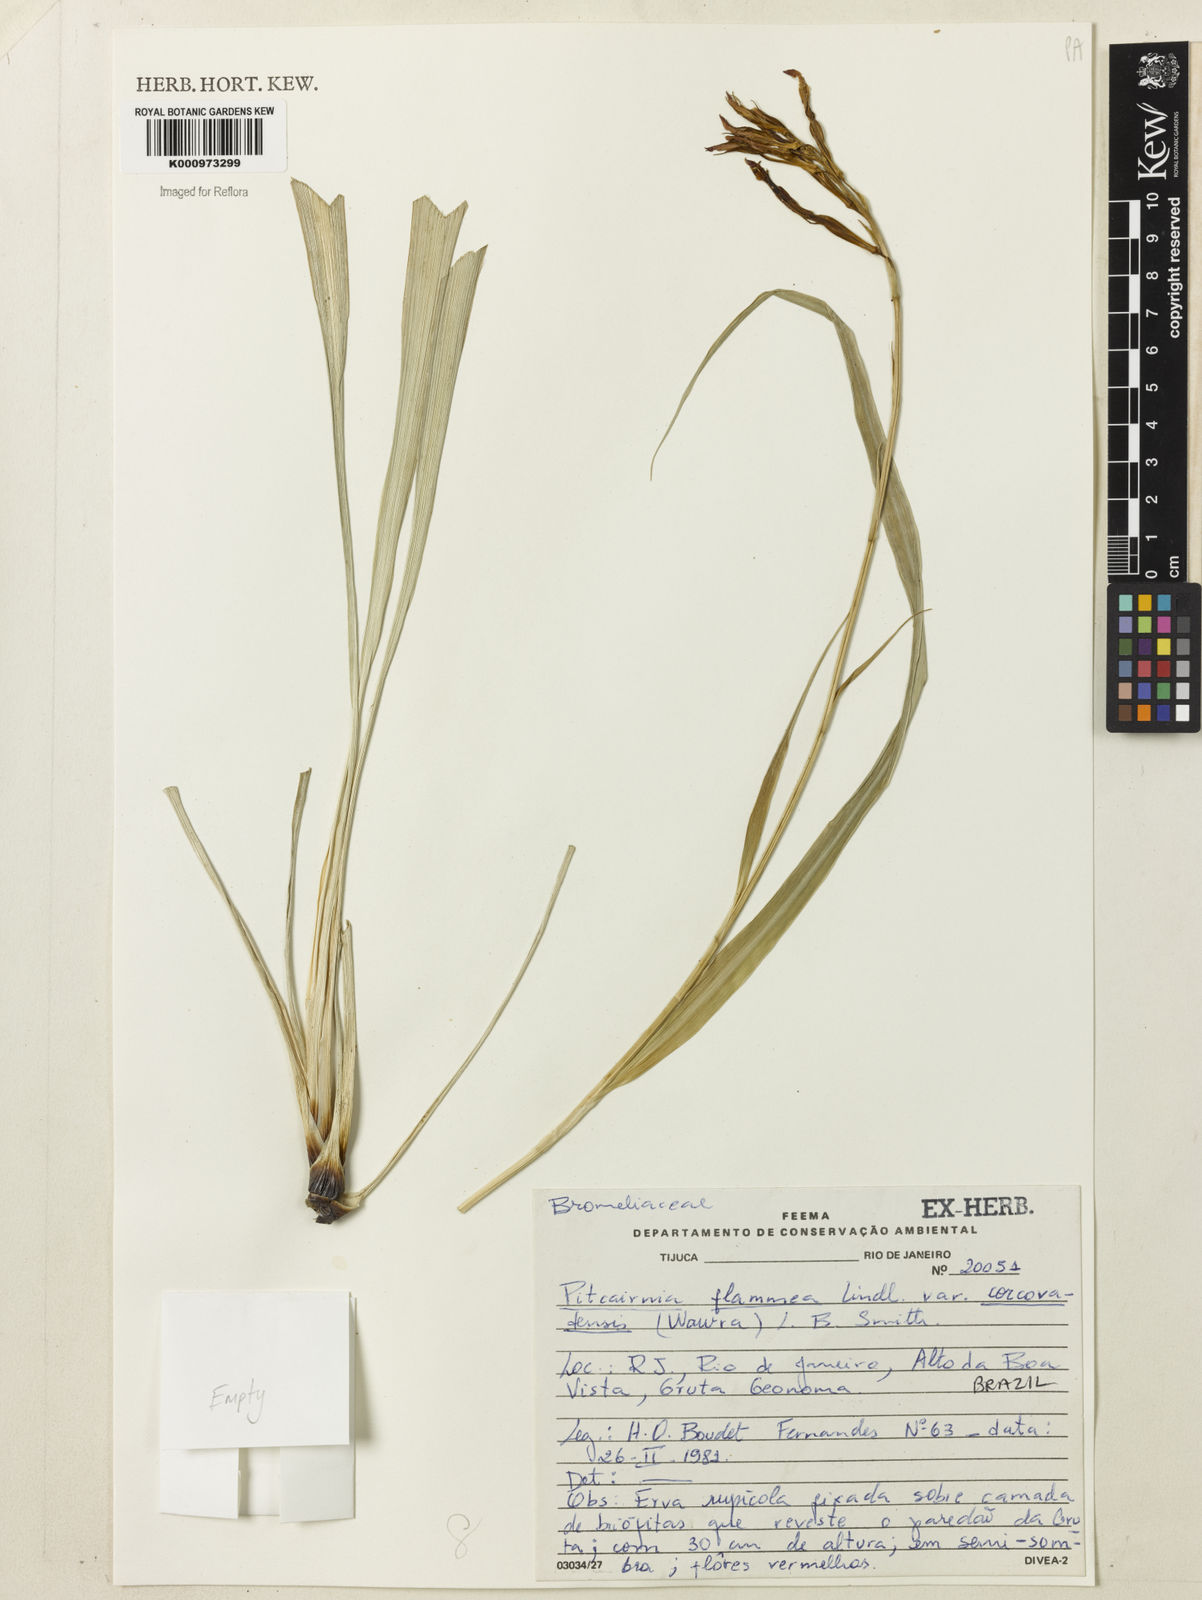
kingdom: Plantae
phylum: Tracheophyta
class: Liliopsida
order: Poales
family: Bromeliaceae
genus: Pitcairnia
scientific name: Pitcairnia corcovadensis
